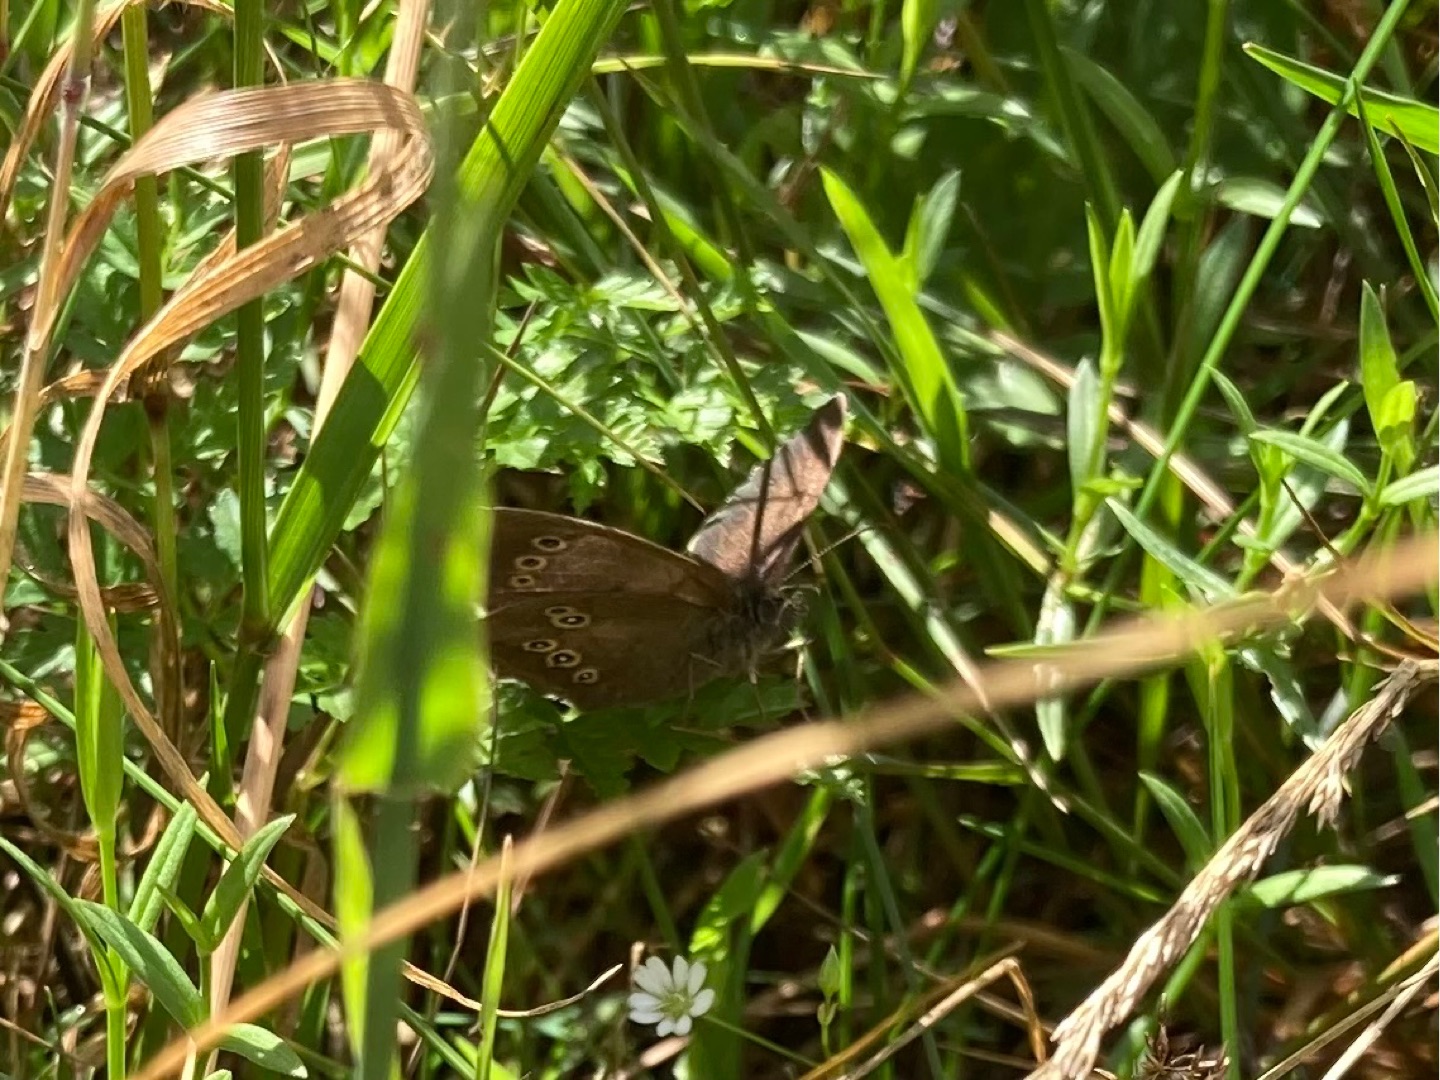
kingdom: Animalia
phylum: Arthropoda
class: Insecta
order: Lepidoptera
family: Nymphalidae
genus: Aphantopus
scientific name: Aphantopus hyperantus
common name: Engrandøje
